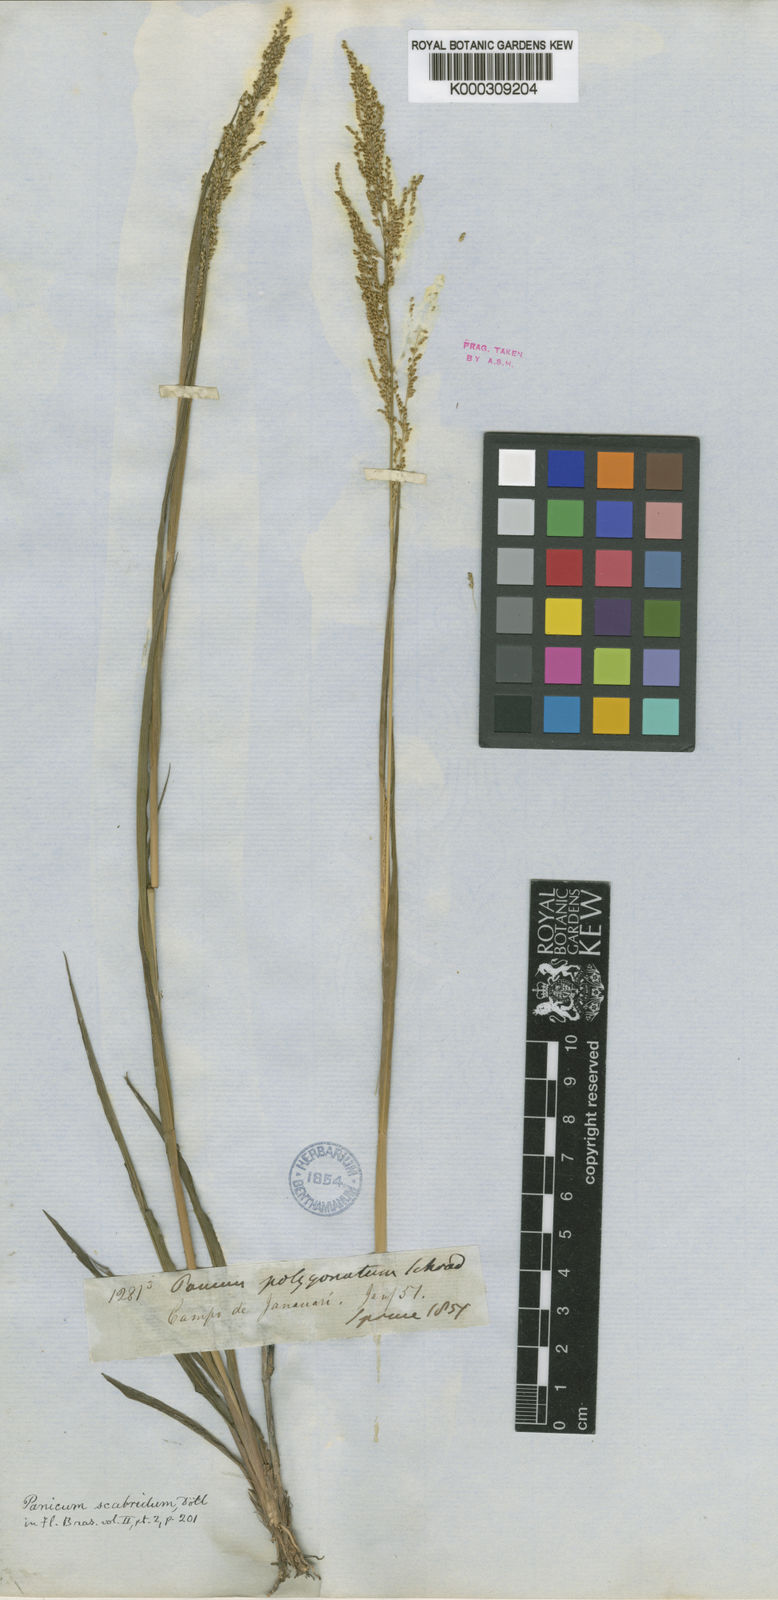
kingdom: Plantae
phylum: Tracheophyta
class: Liliopsida
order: Poales
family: Poaceae
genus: Panicum
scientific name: Panicum
